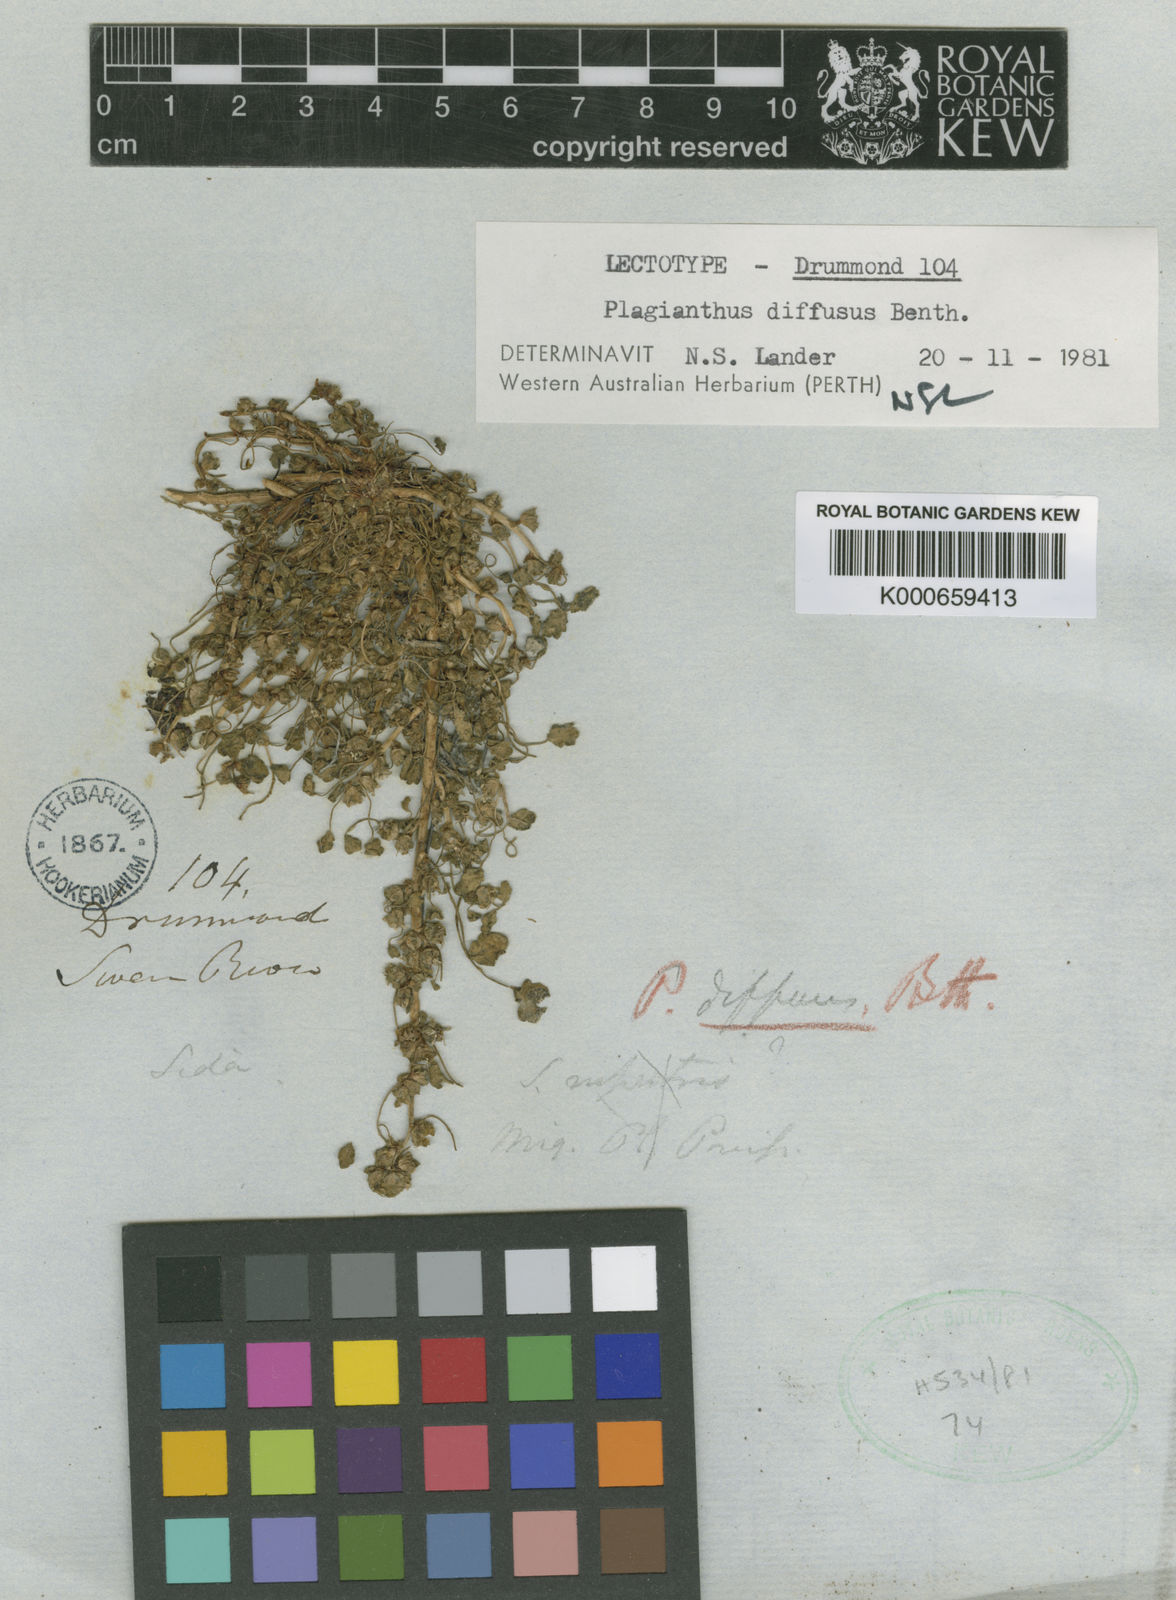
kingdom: Plantae
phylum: Tracheophyta
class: Magnoliopsida
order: Malvales
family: Malvaceae
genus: Lawrencia
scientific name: Lawrencia diffusa
